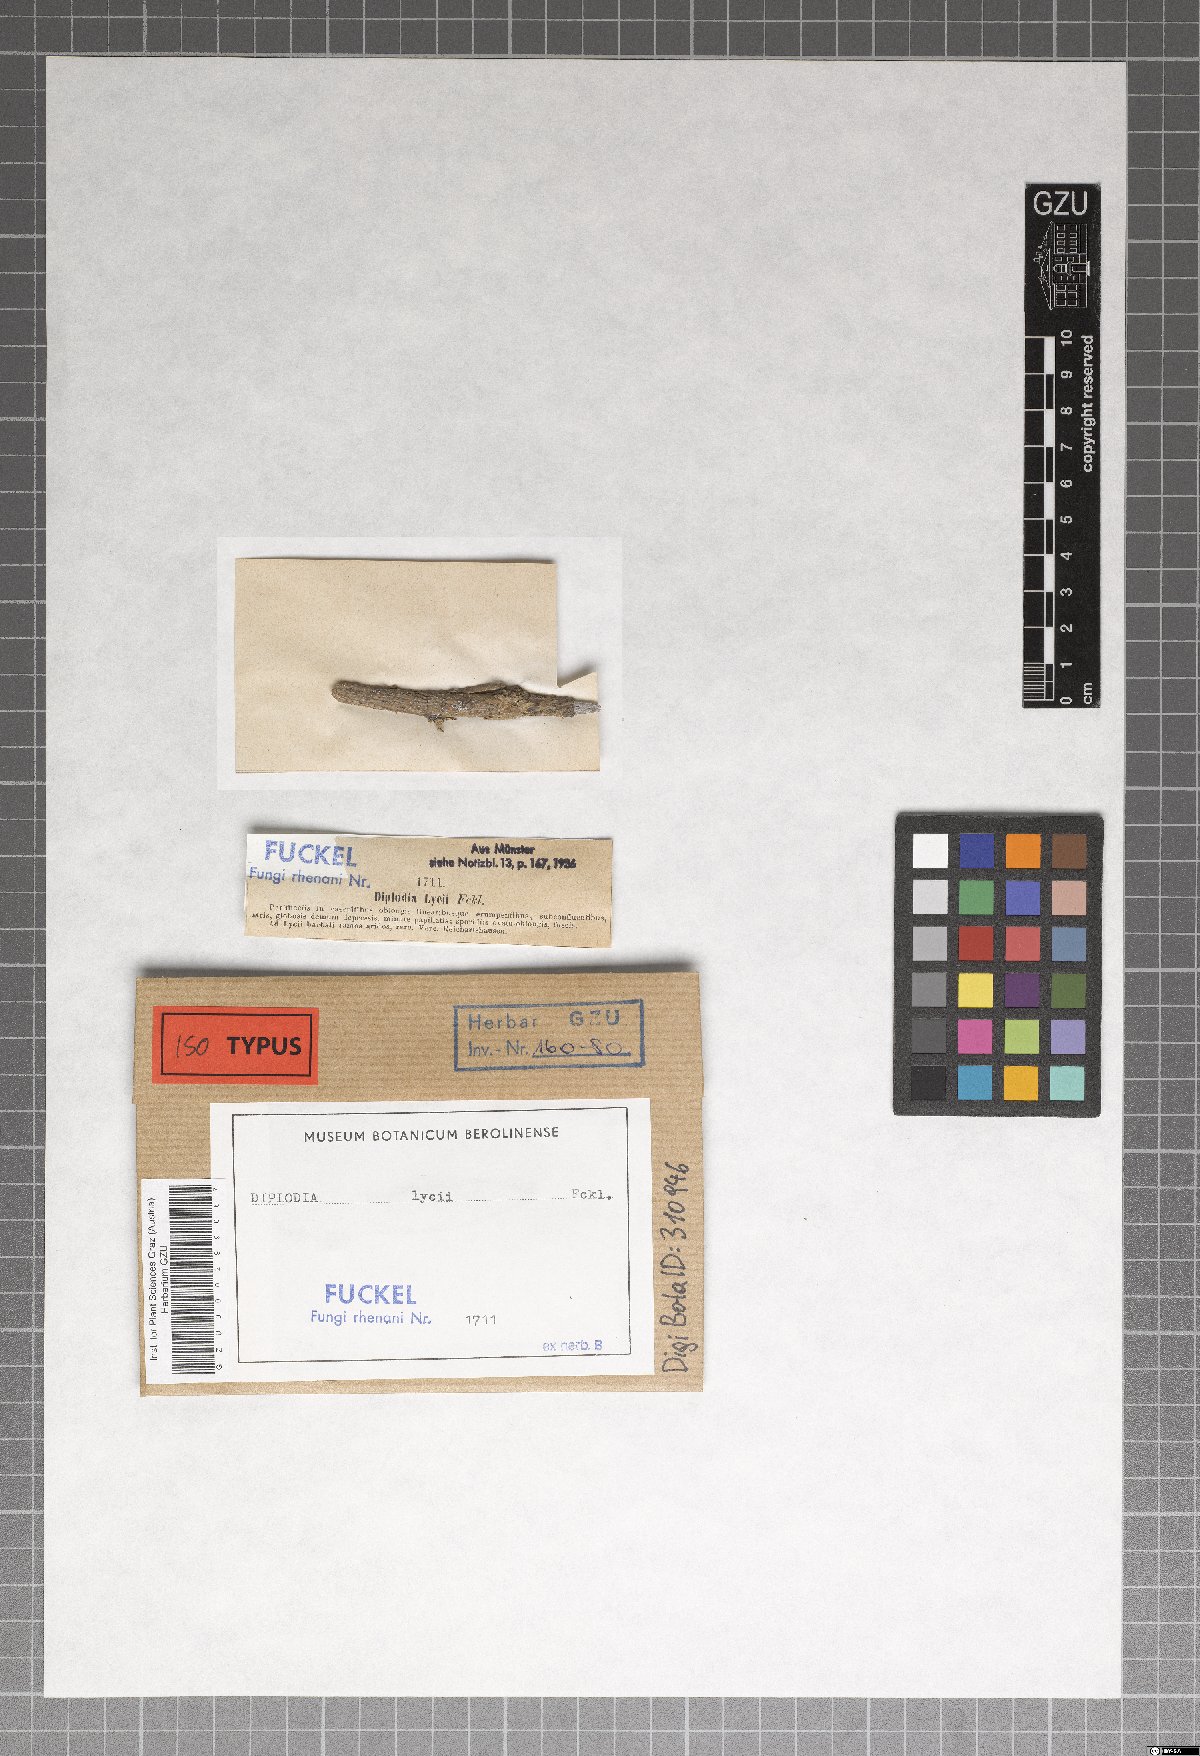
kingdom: Fungi
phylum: Ascomycota
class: Dothideomycetes
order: Botryosphaeriales
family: Botryosphaeriaceae
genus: Diplodia
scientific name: Diplodia
